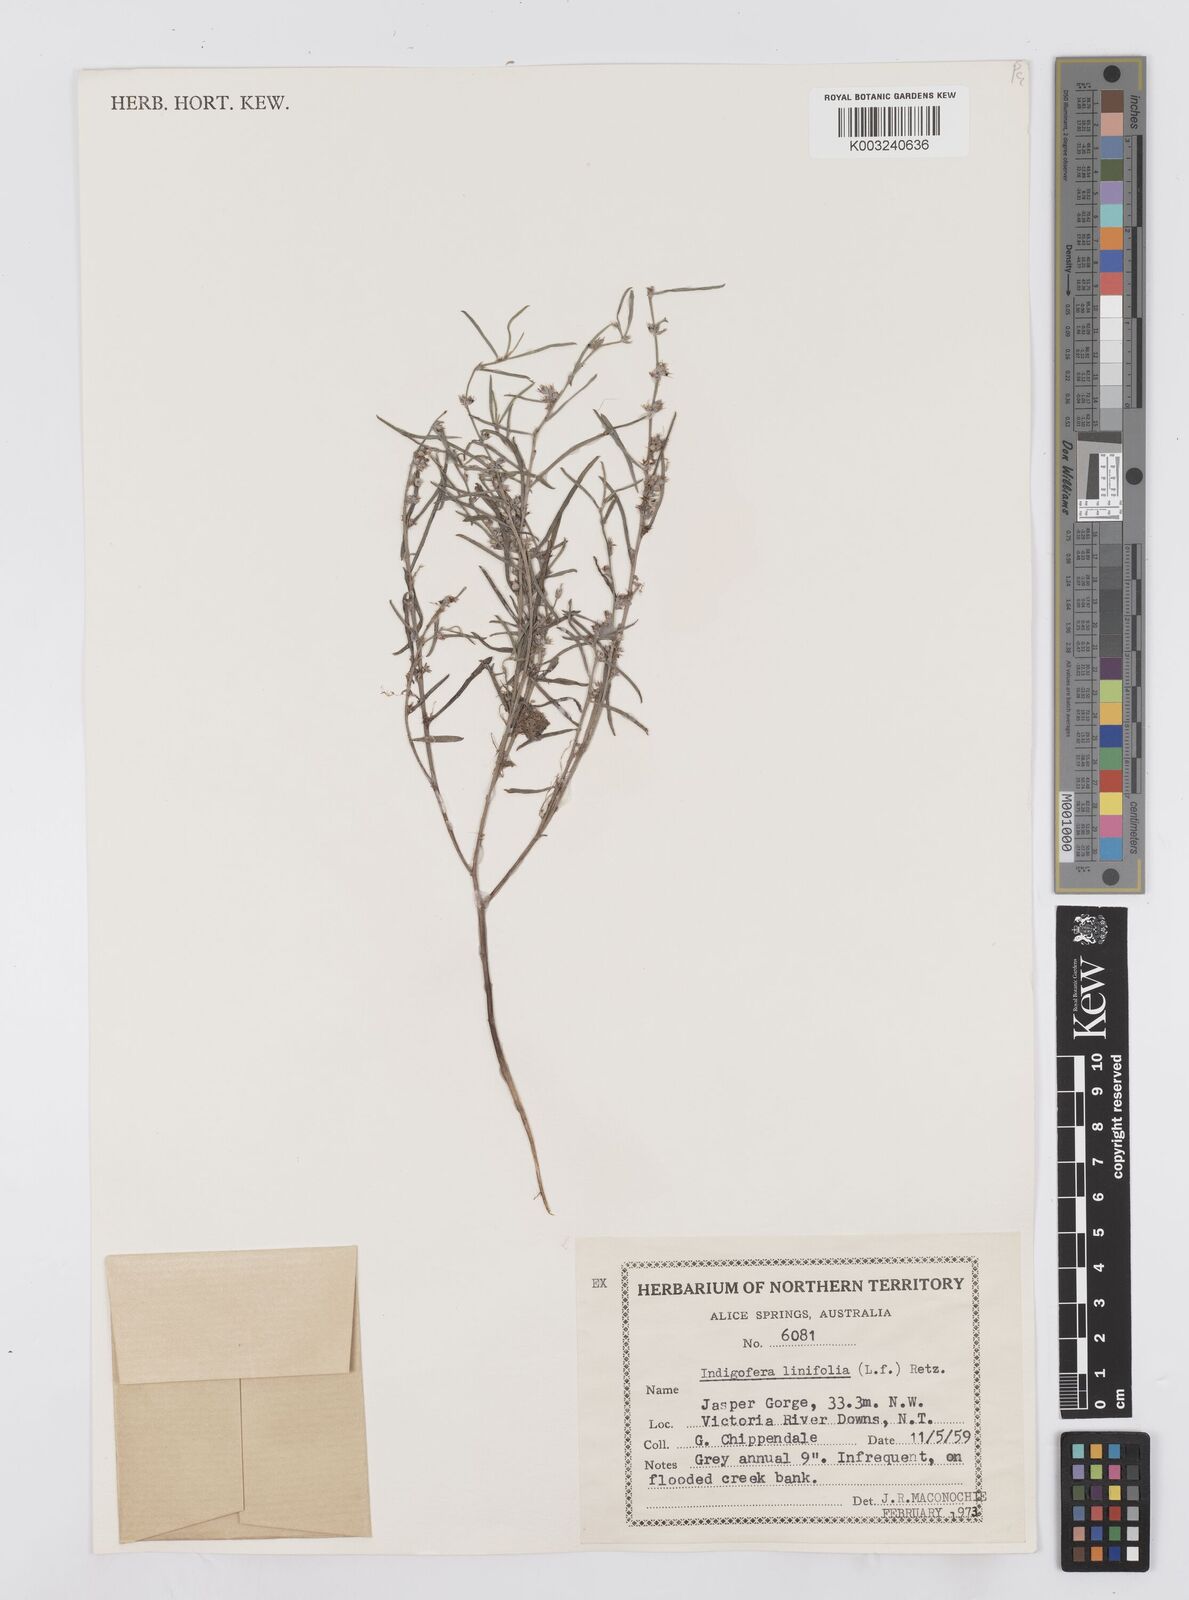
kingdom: Plantae
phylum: Tracheophyta
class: Magnoliopsida
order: Fabales
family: Fabaceae
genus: Indigofera
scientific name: Indigofera linifolia
